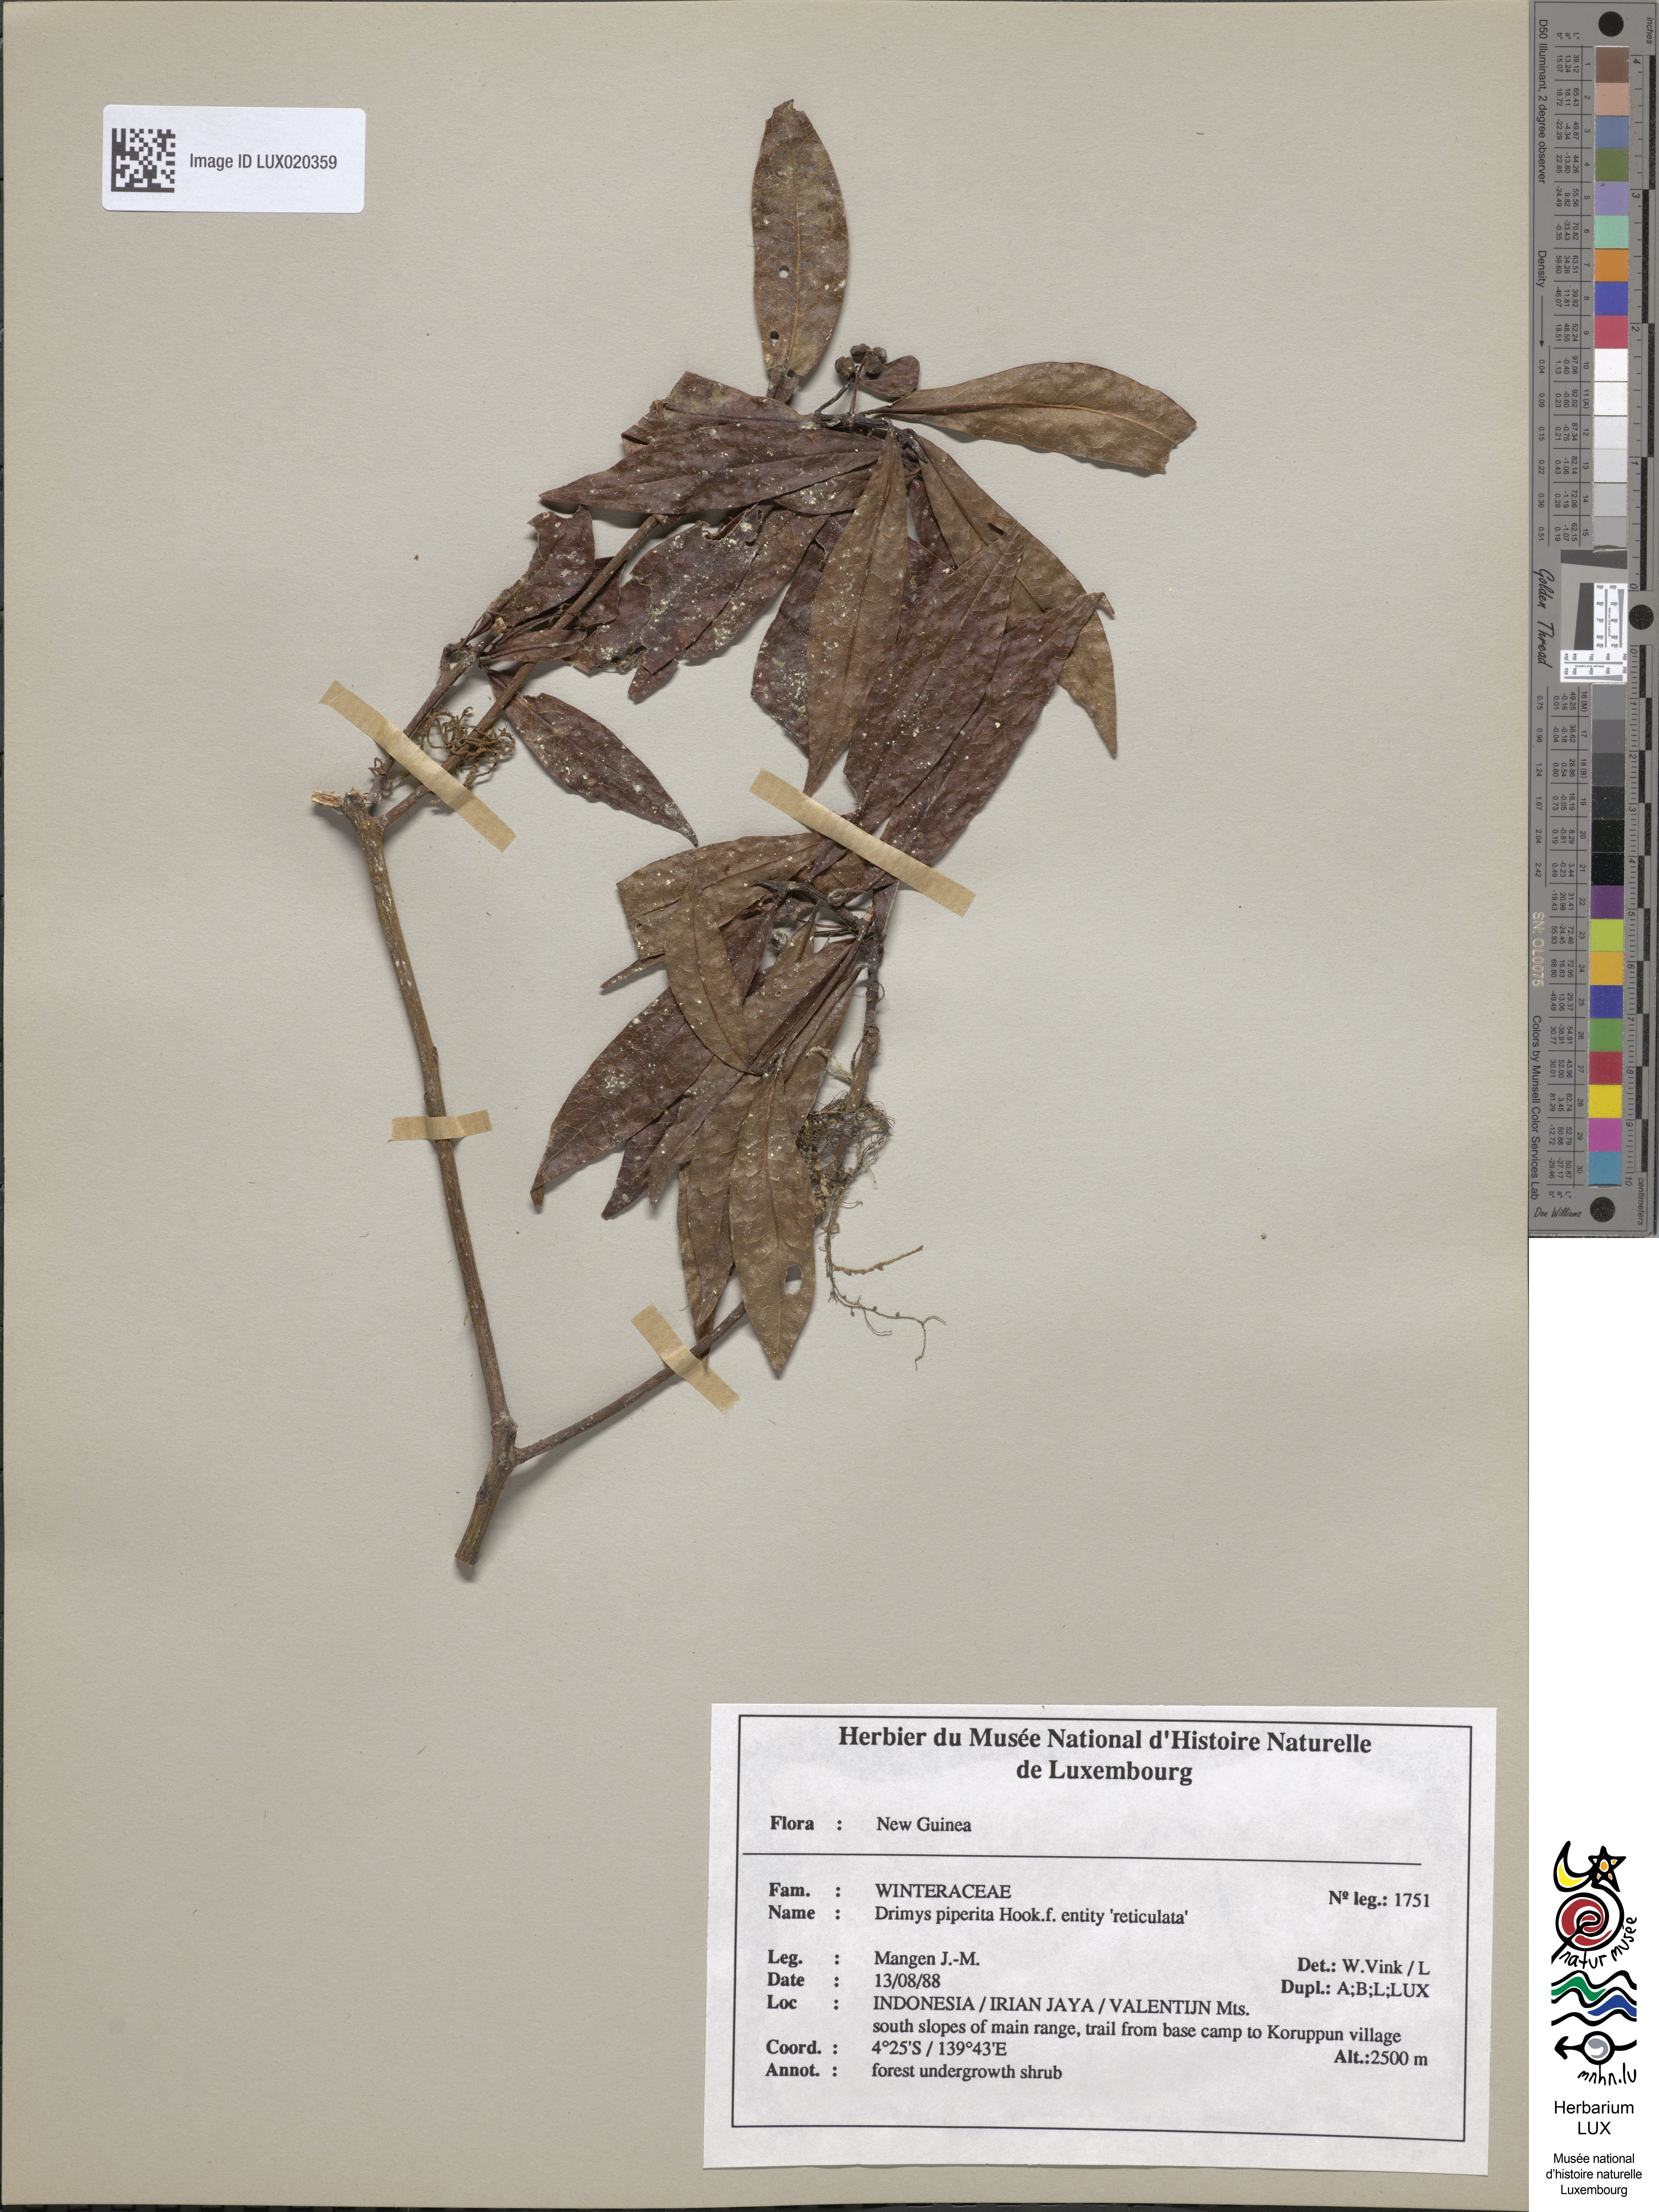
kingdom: Plantae
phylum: Tracheophyta
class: Magnoliopsida
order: Canellales
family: Winteraceae
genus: Drimys
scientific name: Drimys piperita
